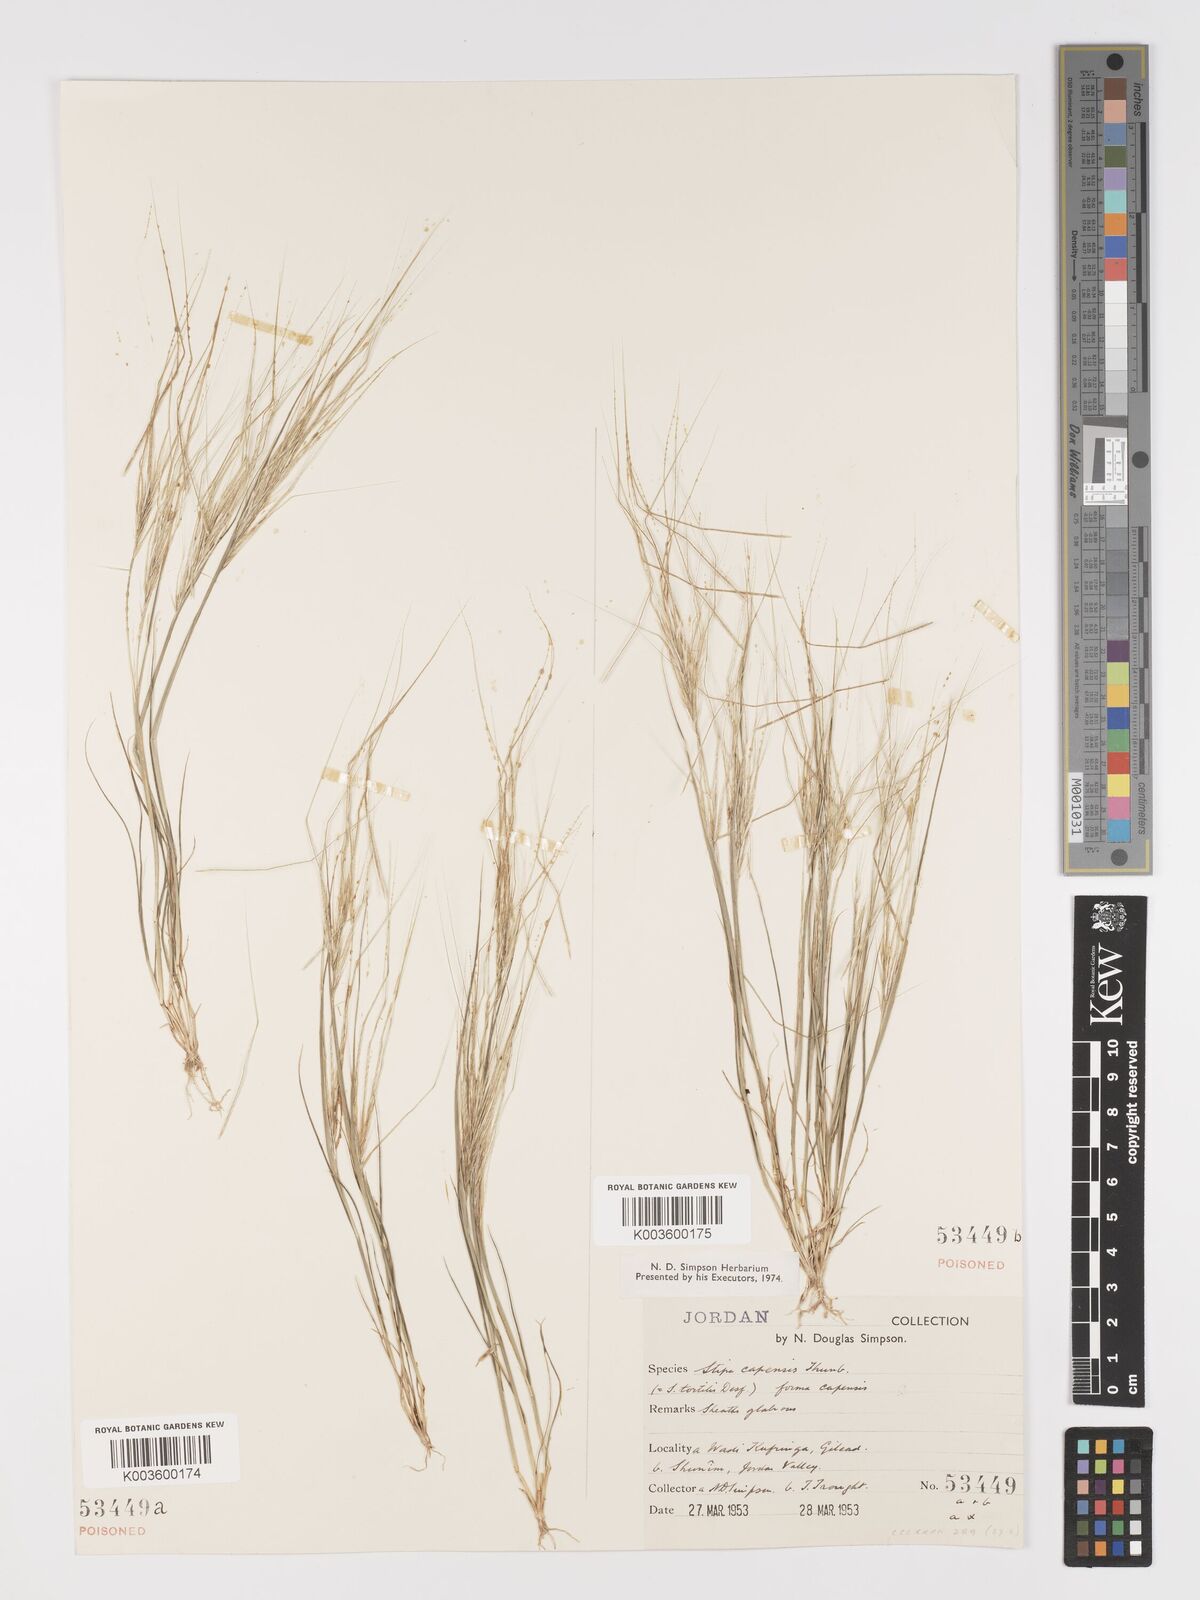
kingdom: Plantae
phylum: Tracheophyta
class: Liliopsida
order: Poales
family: Poaceae
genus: Stipellula
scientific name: Stipellula capensis
